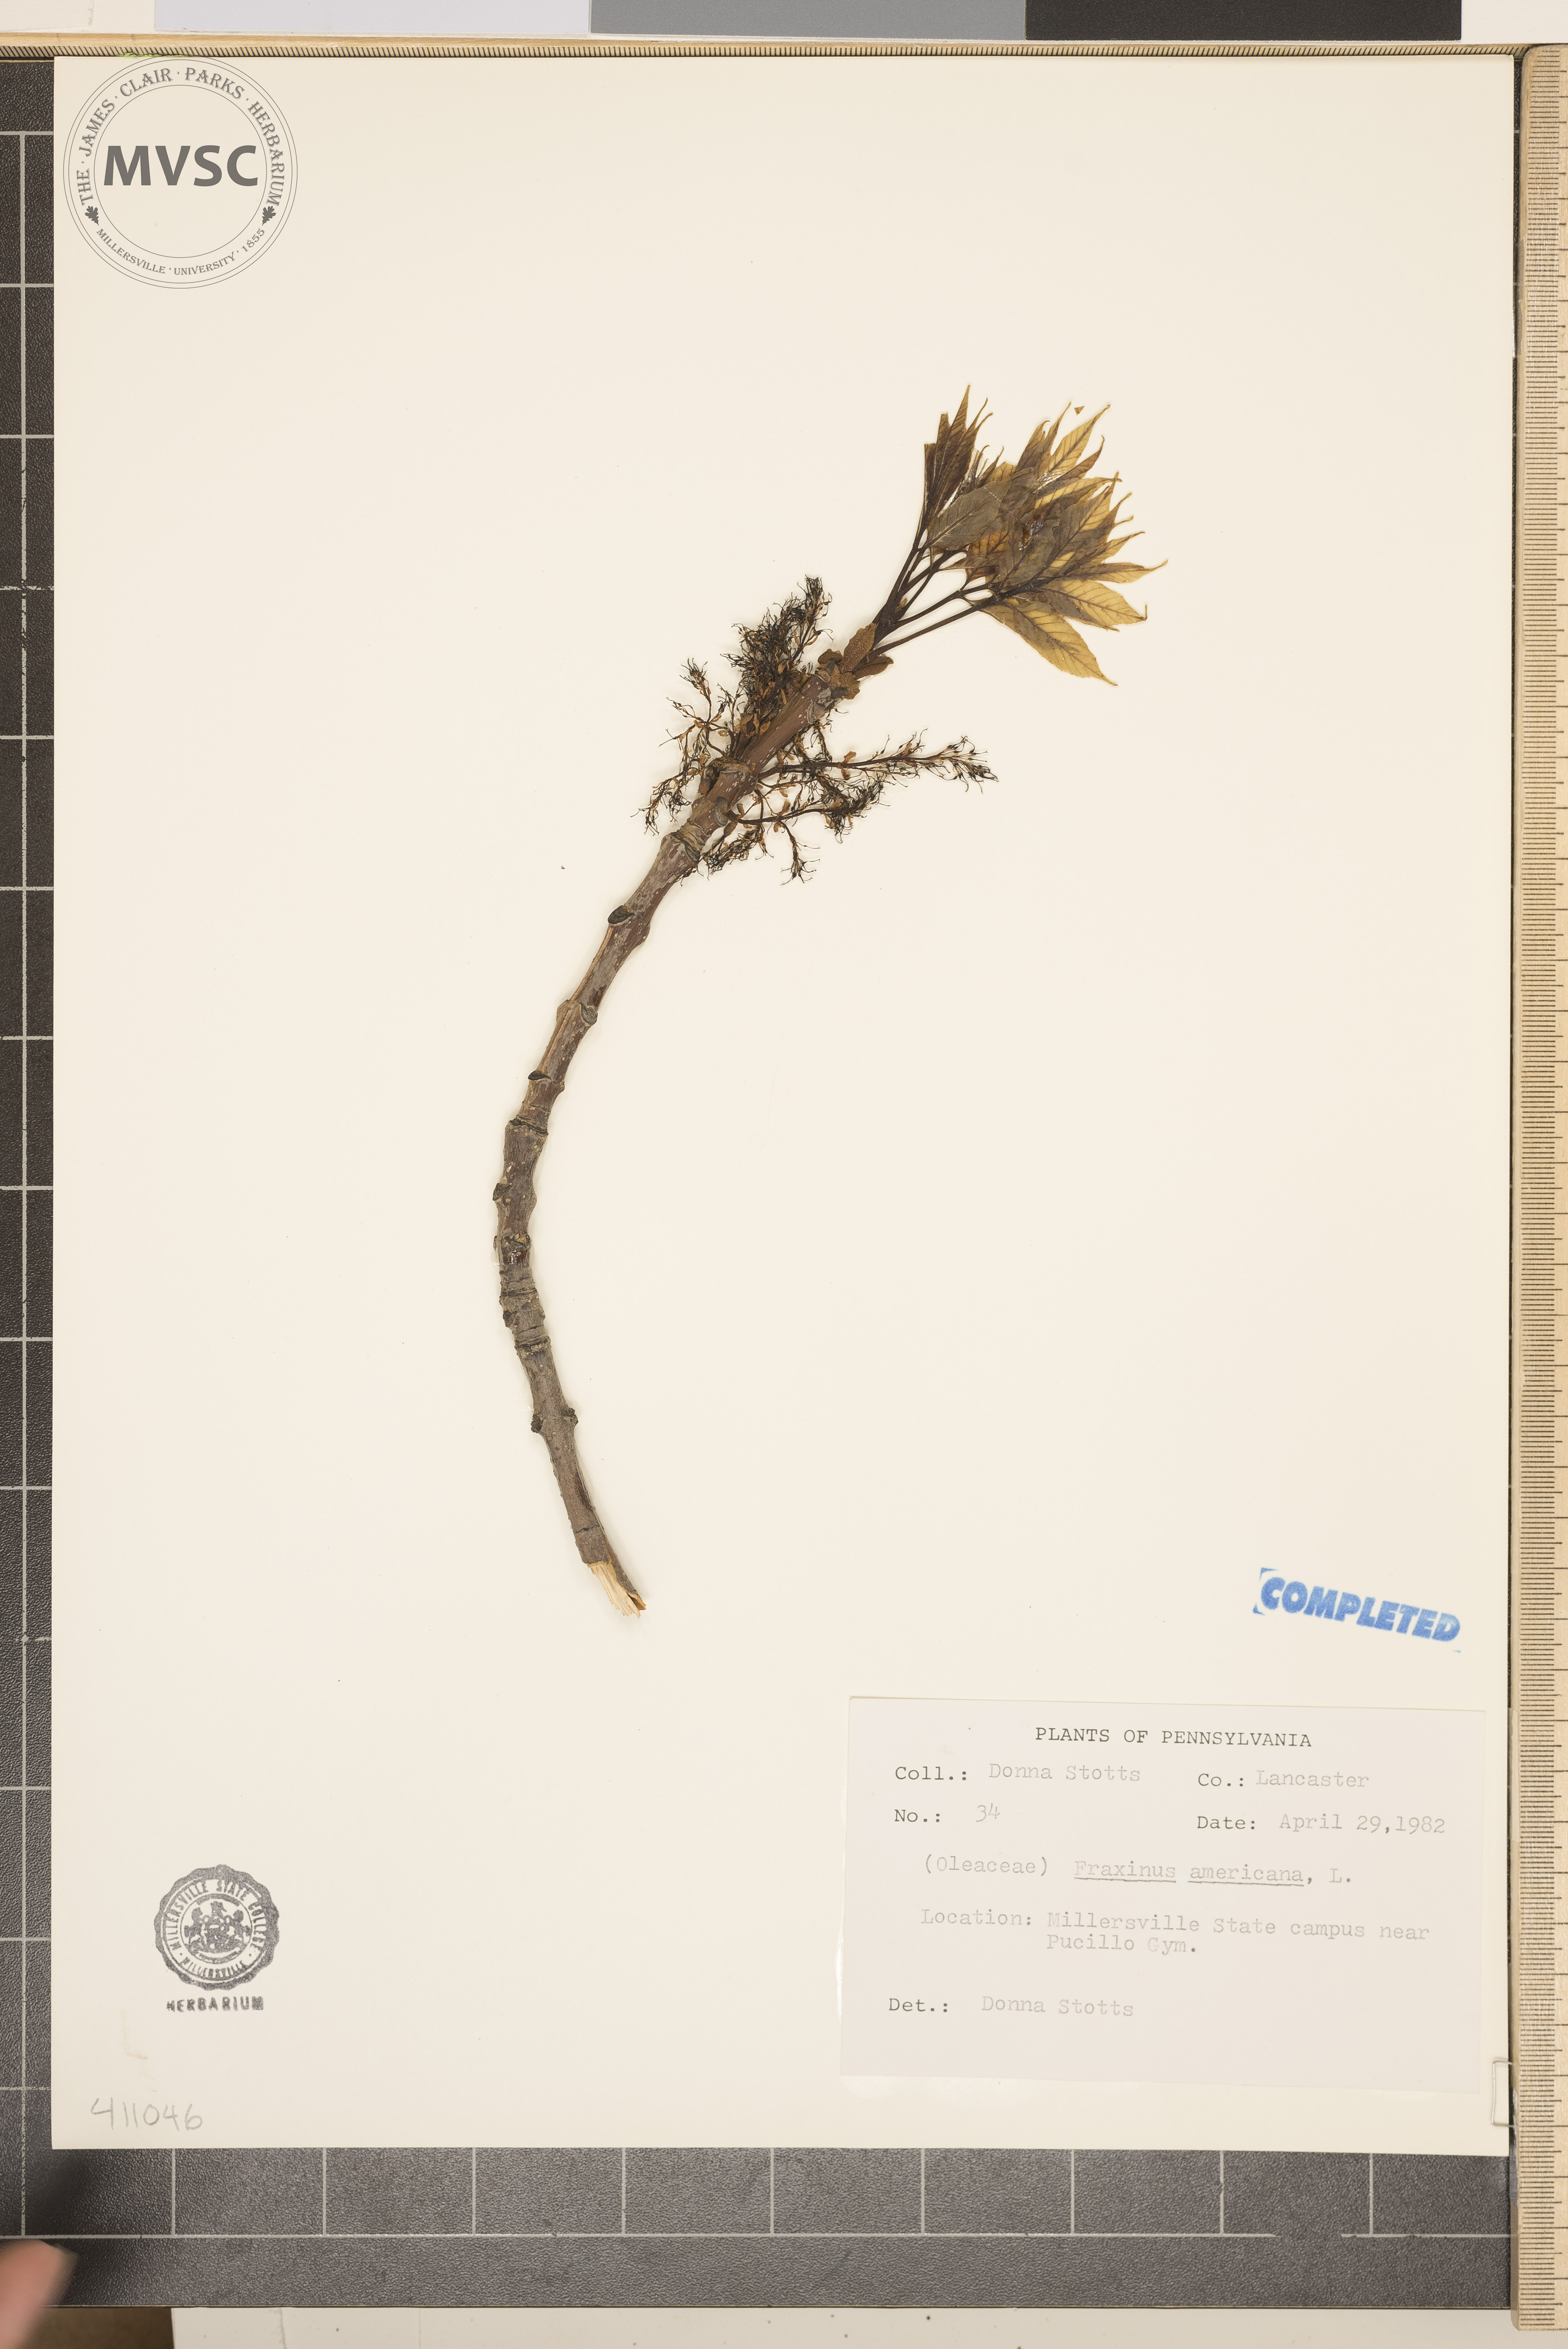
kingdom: Plantae
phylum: Tracheophyta
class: Magnoliopsida
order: Lamiales
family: Oleaceae
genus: Fraxinus
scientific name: Fraxinus americana
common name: White ash
